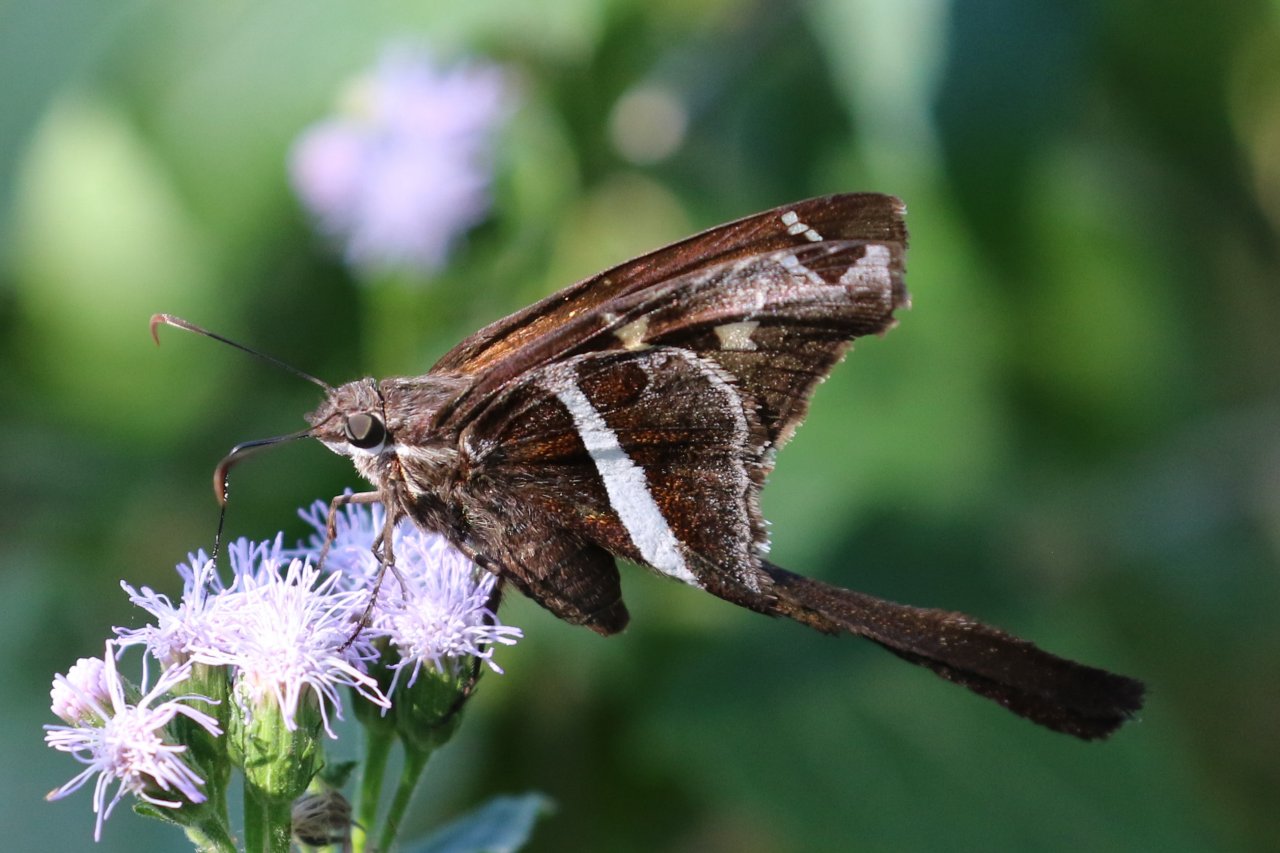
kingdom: Animalia
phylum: Arthropoda
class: Insecta
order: Lepidoptera
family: Hesperiidae
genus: Chioides
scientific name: Chioides catillus
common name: White-striped Longtail
